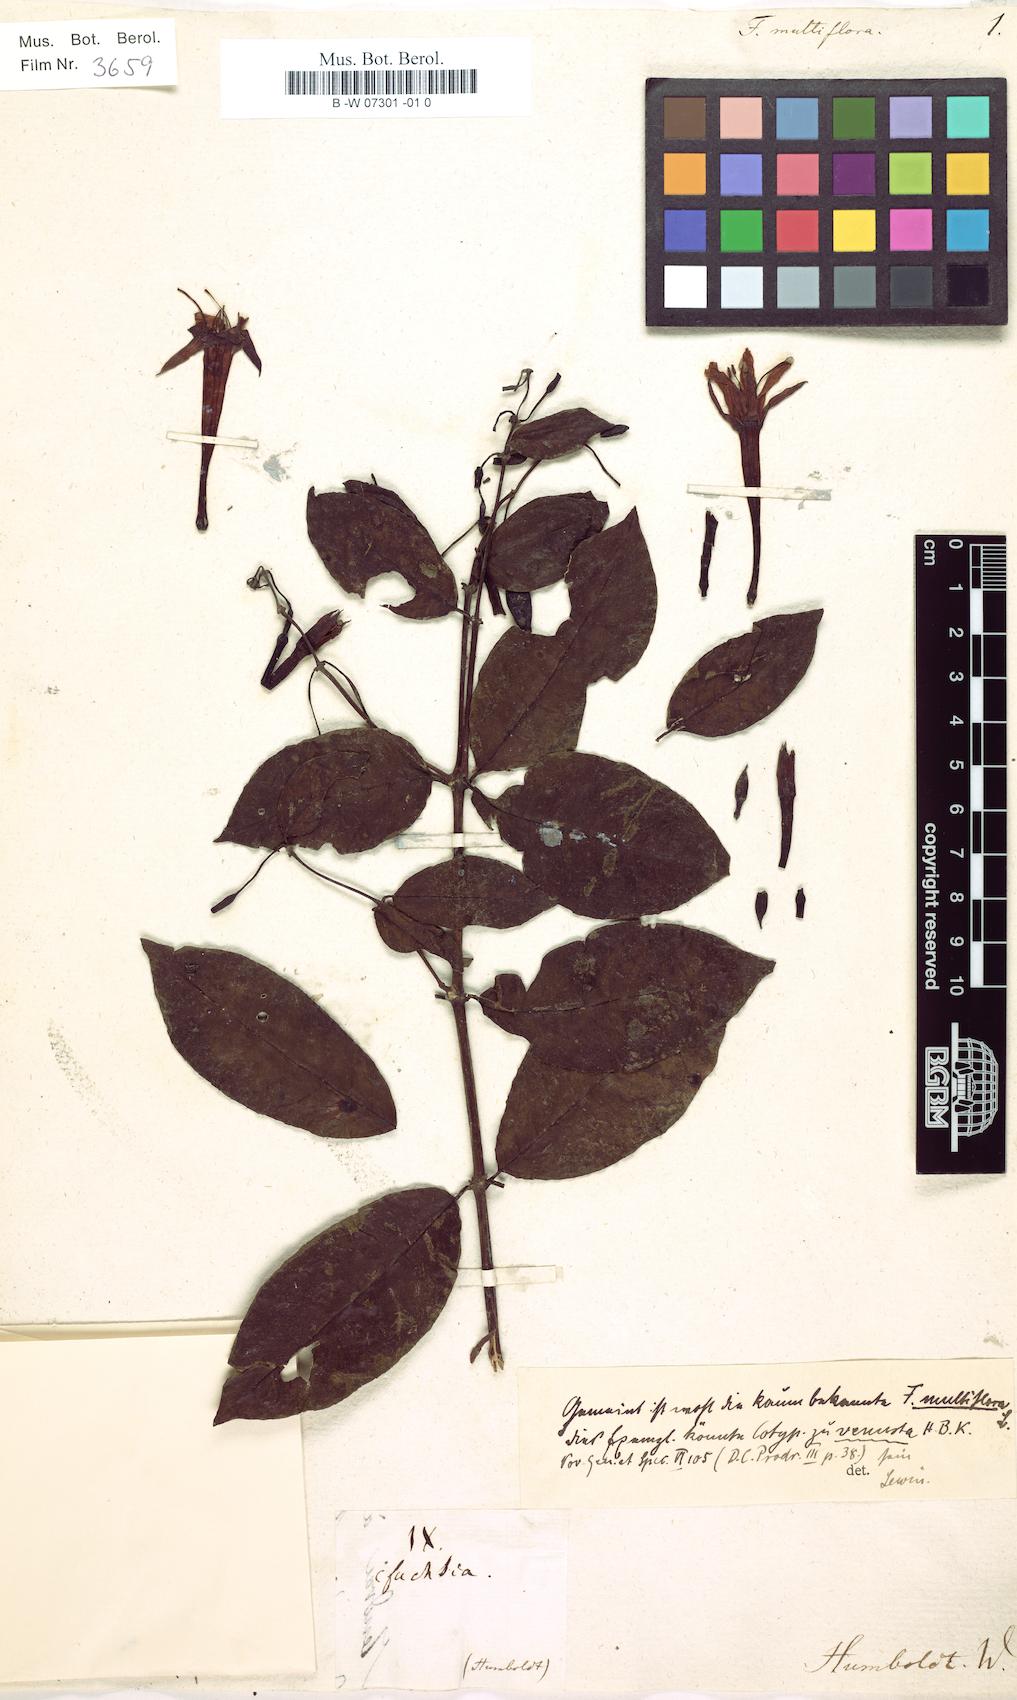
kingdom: Plantae
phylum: Tracheophyta
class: Magnoliopsida
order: Myrtales
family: Onagraceae
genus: Fuchsia
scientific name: Fuchsia magellanica
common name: Hardy fuchsia
